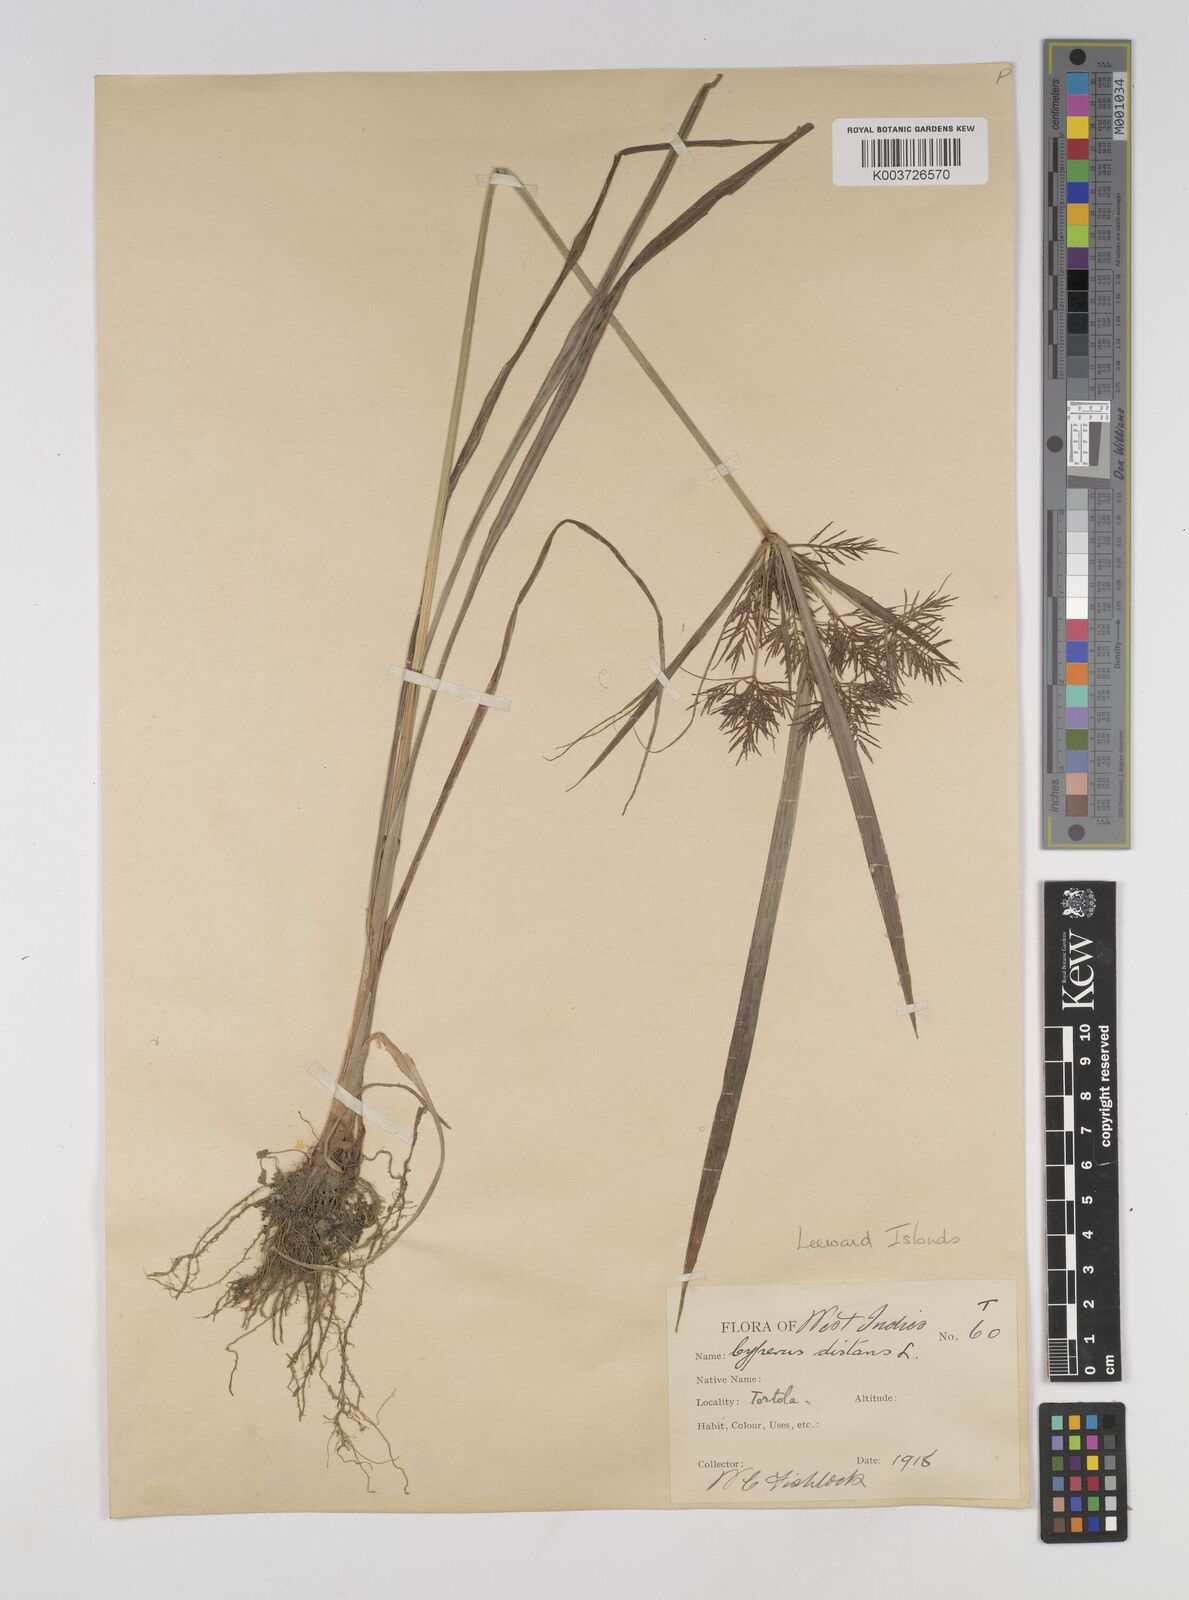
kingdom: Plantae
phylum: Tracheophyta
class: Liliopsida
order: Poales
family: Cyperaceae
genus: Cyperus
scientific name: Cyperus distans
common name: Slender cyperus
